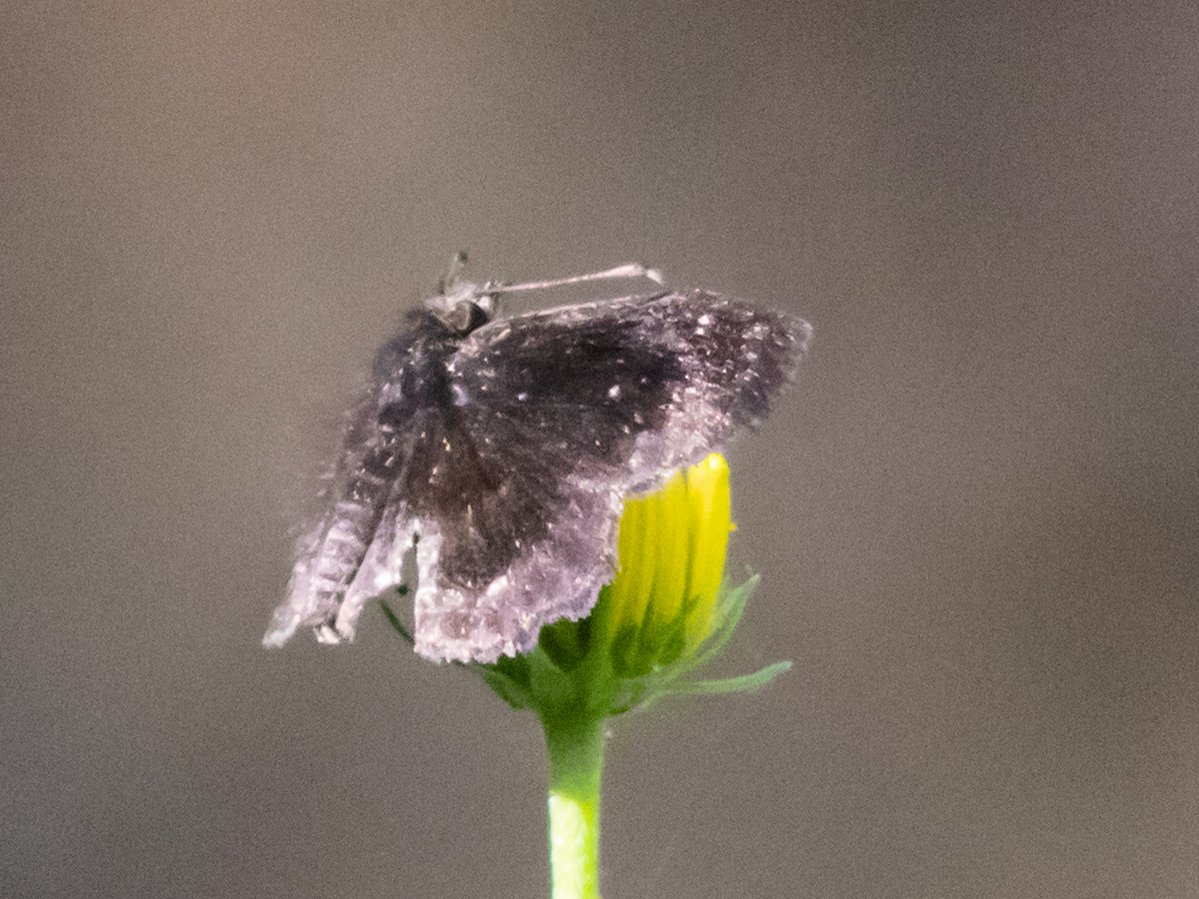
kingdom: Animalia
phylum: Arthropoda
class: Insecta
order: Lepidoptera
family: Hesperiidae
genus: Staphylus
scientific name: Staphylus mazans
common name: Mazans Scallopwing
